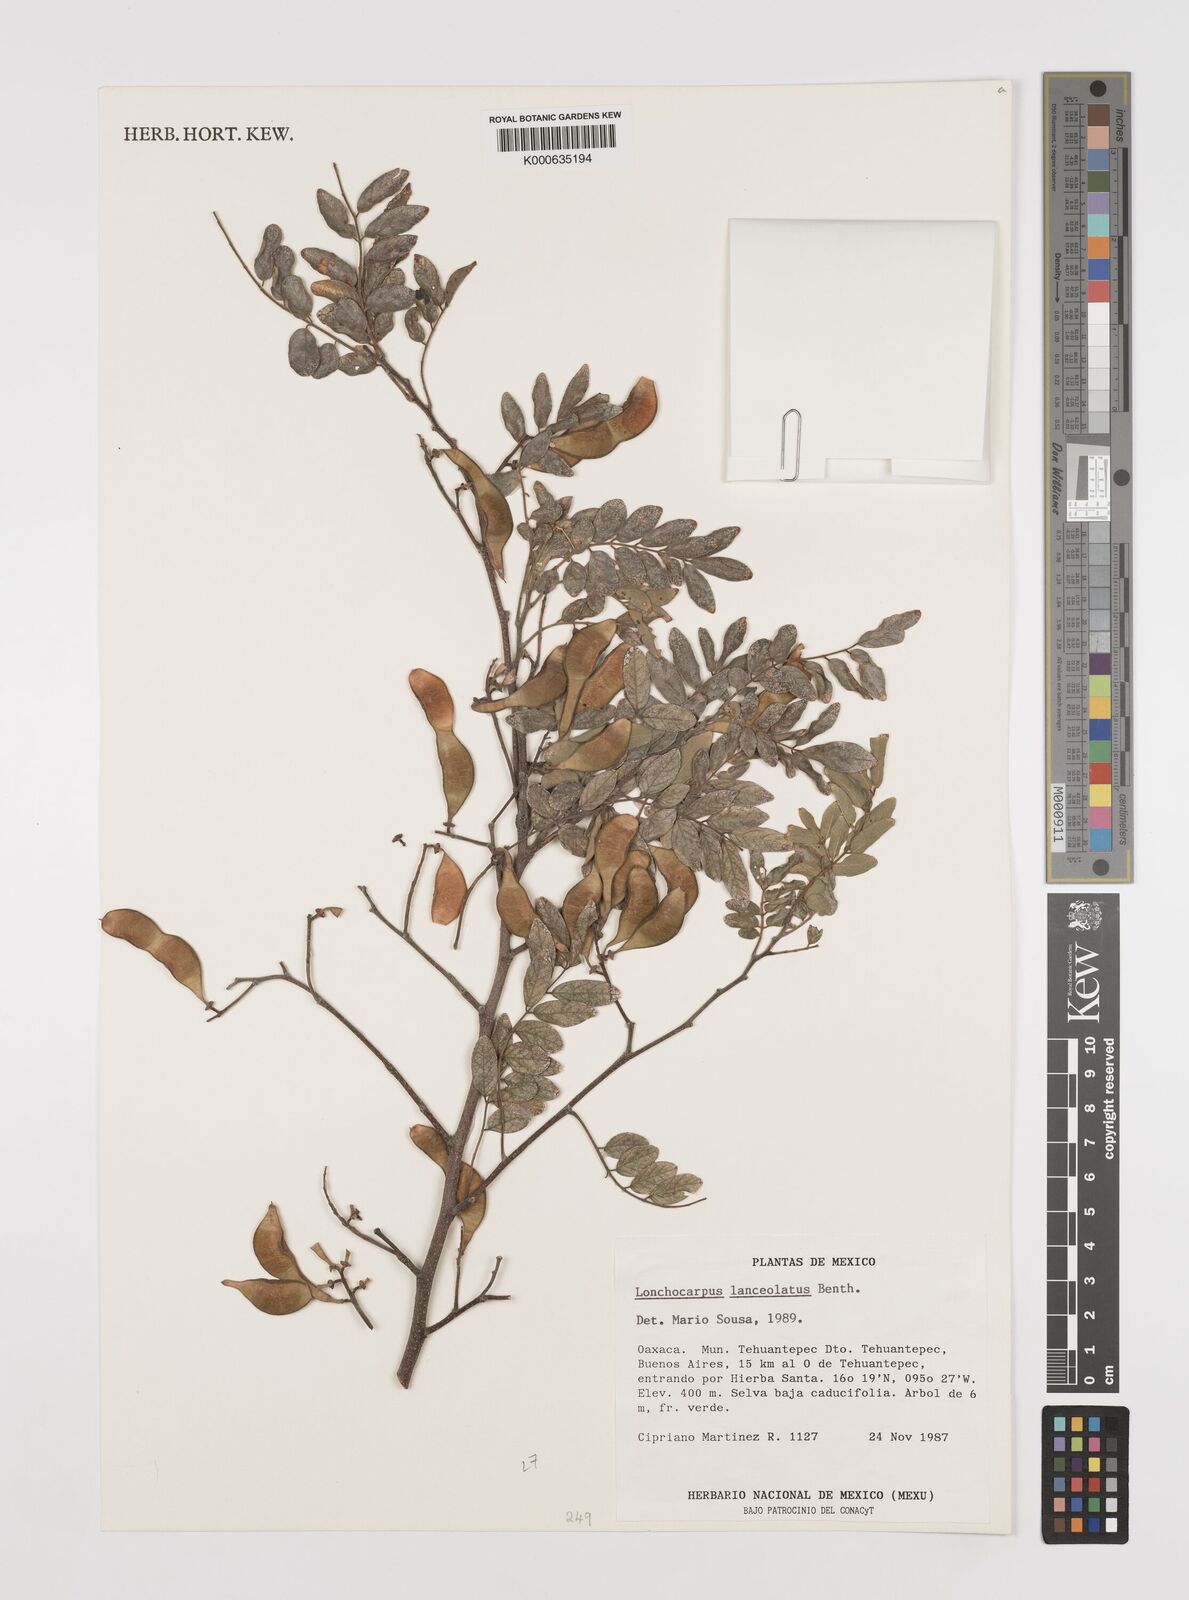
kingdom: Plantae
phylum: Tracheophyta
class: Magnoliopsida
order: Fabales
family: Fabaceae
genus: Lonchocarpus
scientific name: Lonchocarpus lanceolatus
